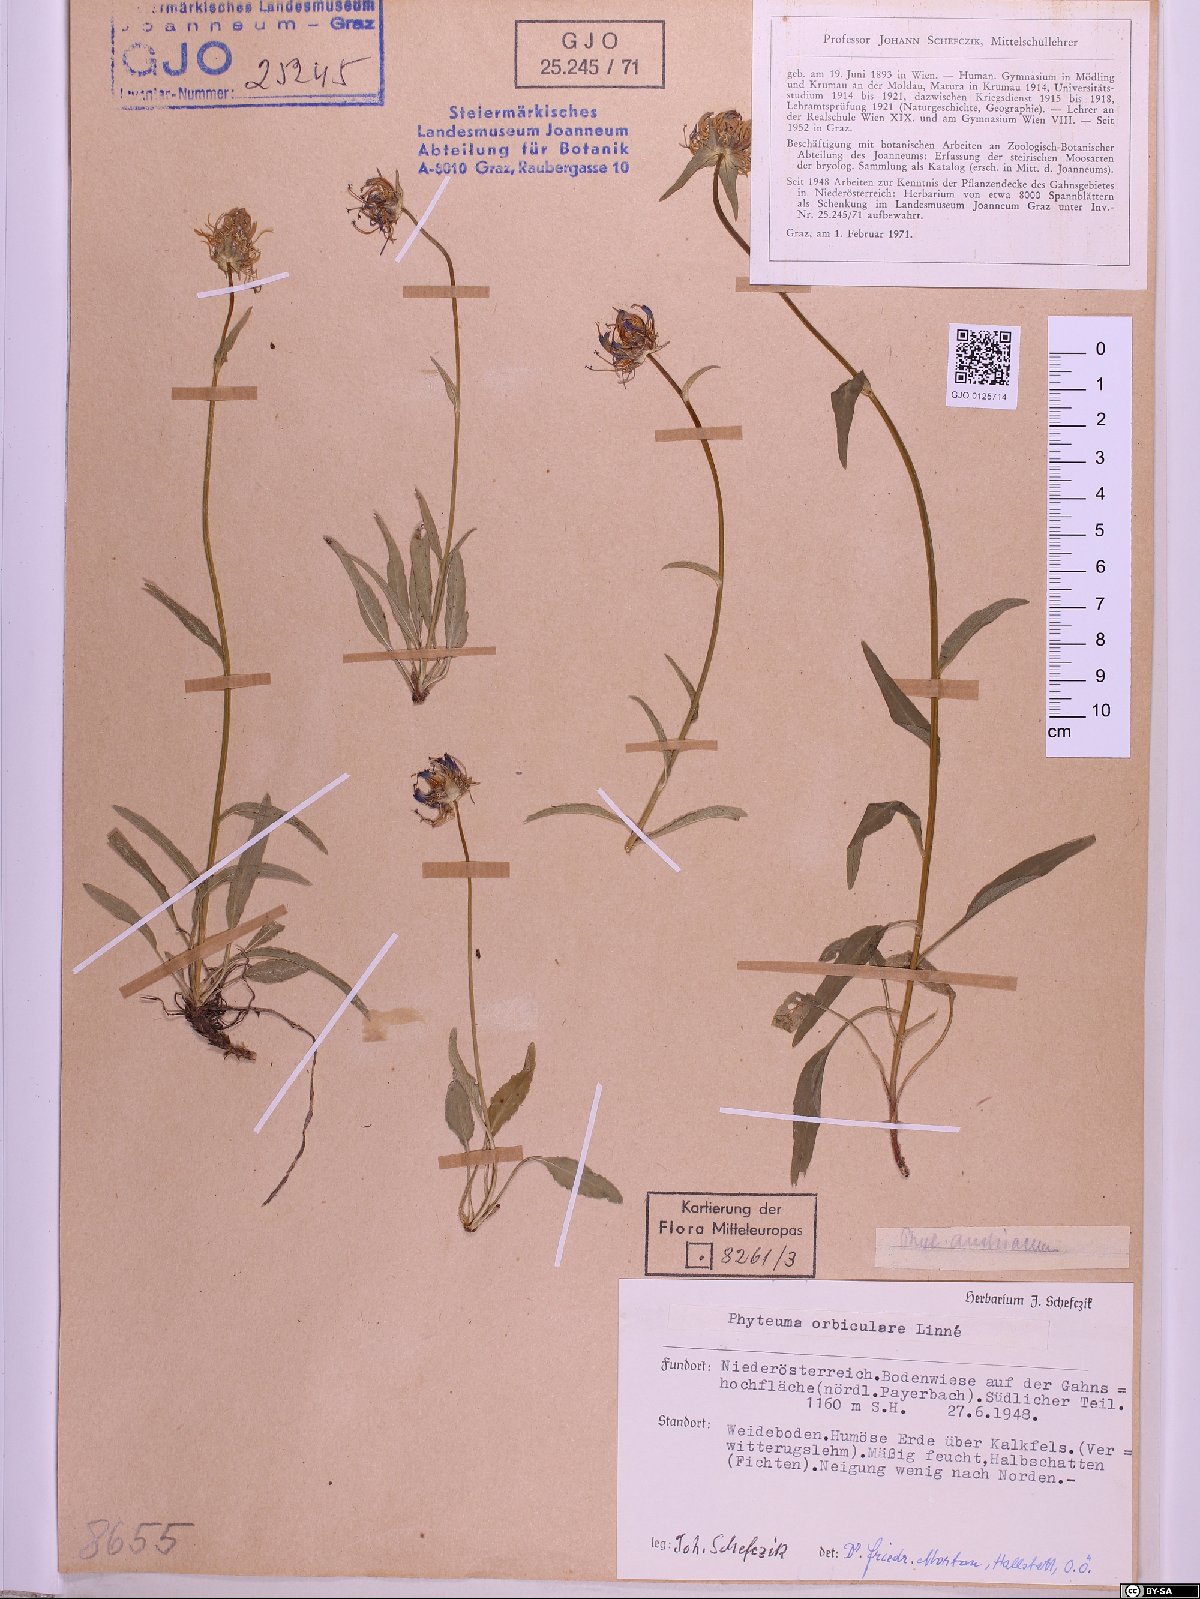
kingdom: Plantae
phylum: Tracheophyta
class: Magnoliopsida
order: Asterales
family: Campanulaceae
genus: Phyteuma
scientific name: Phyteuma orbiculare
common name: Round-headed rampion
